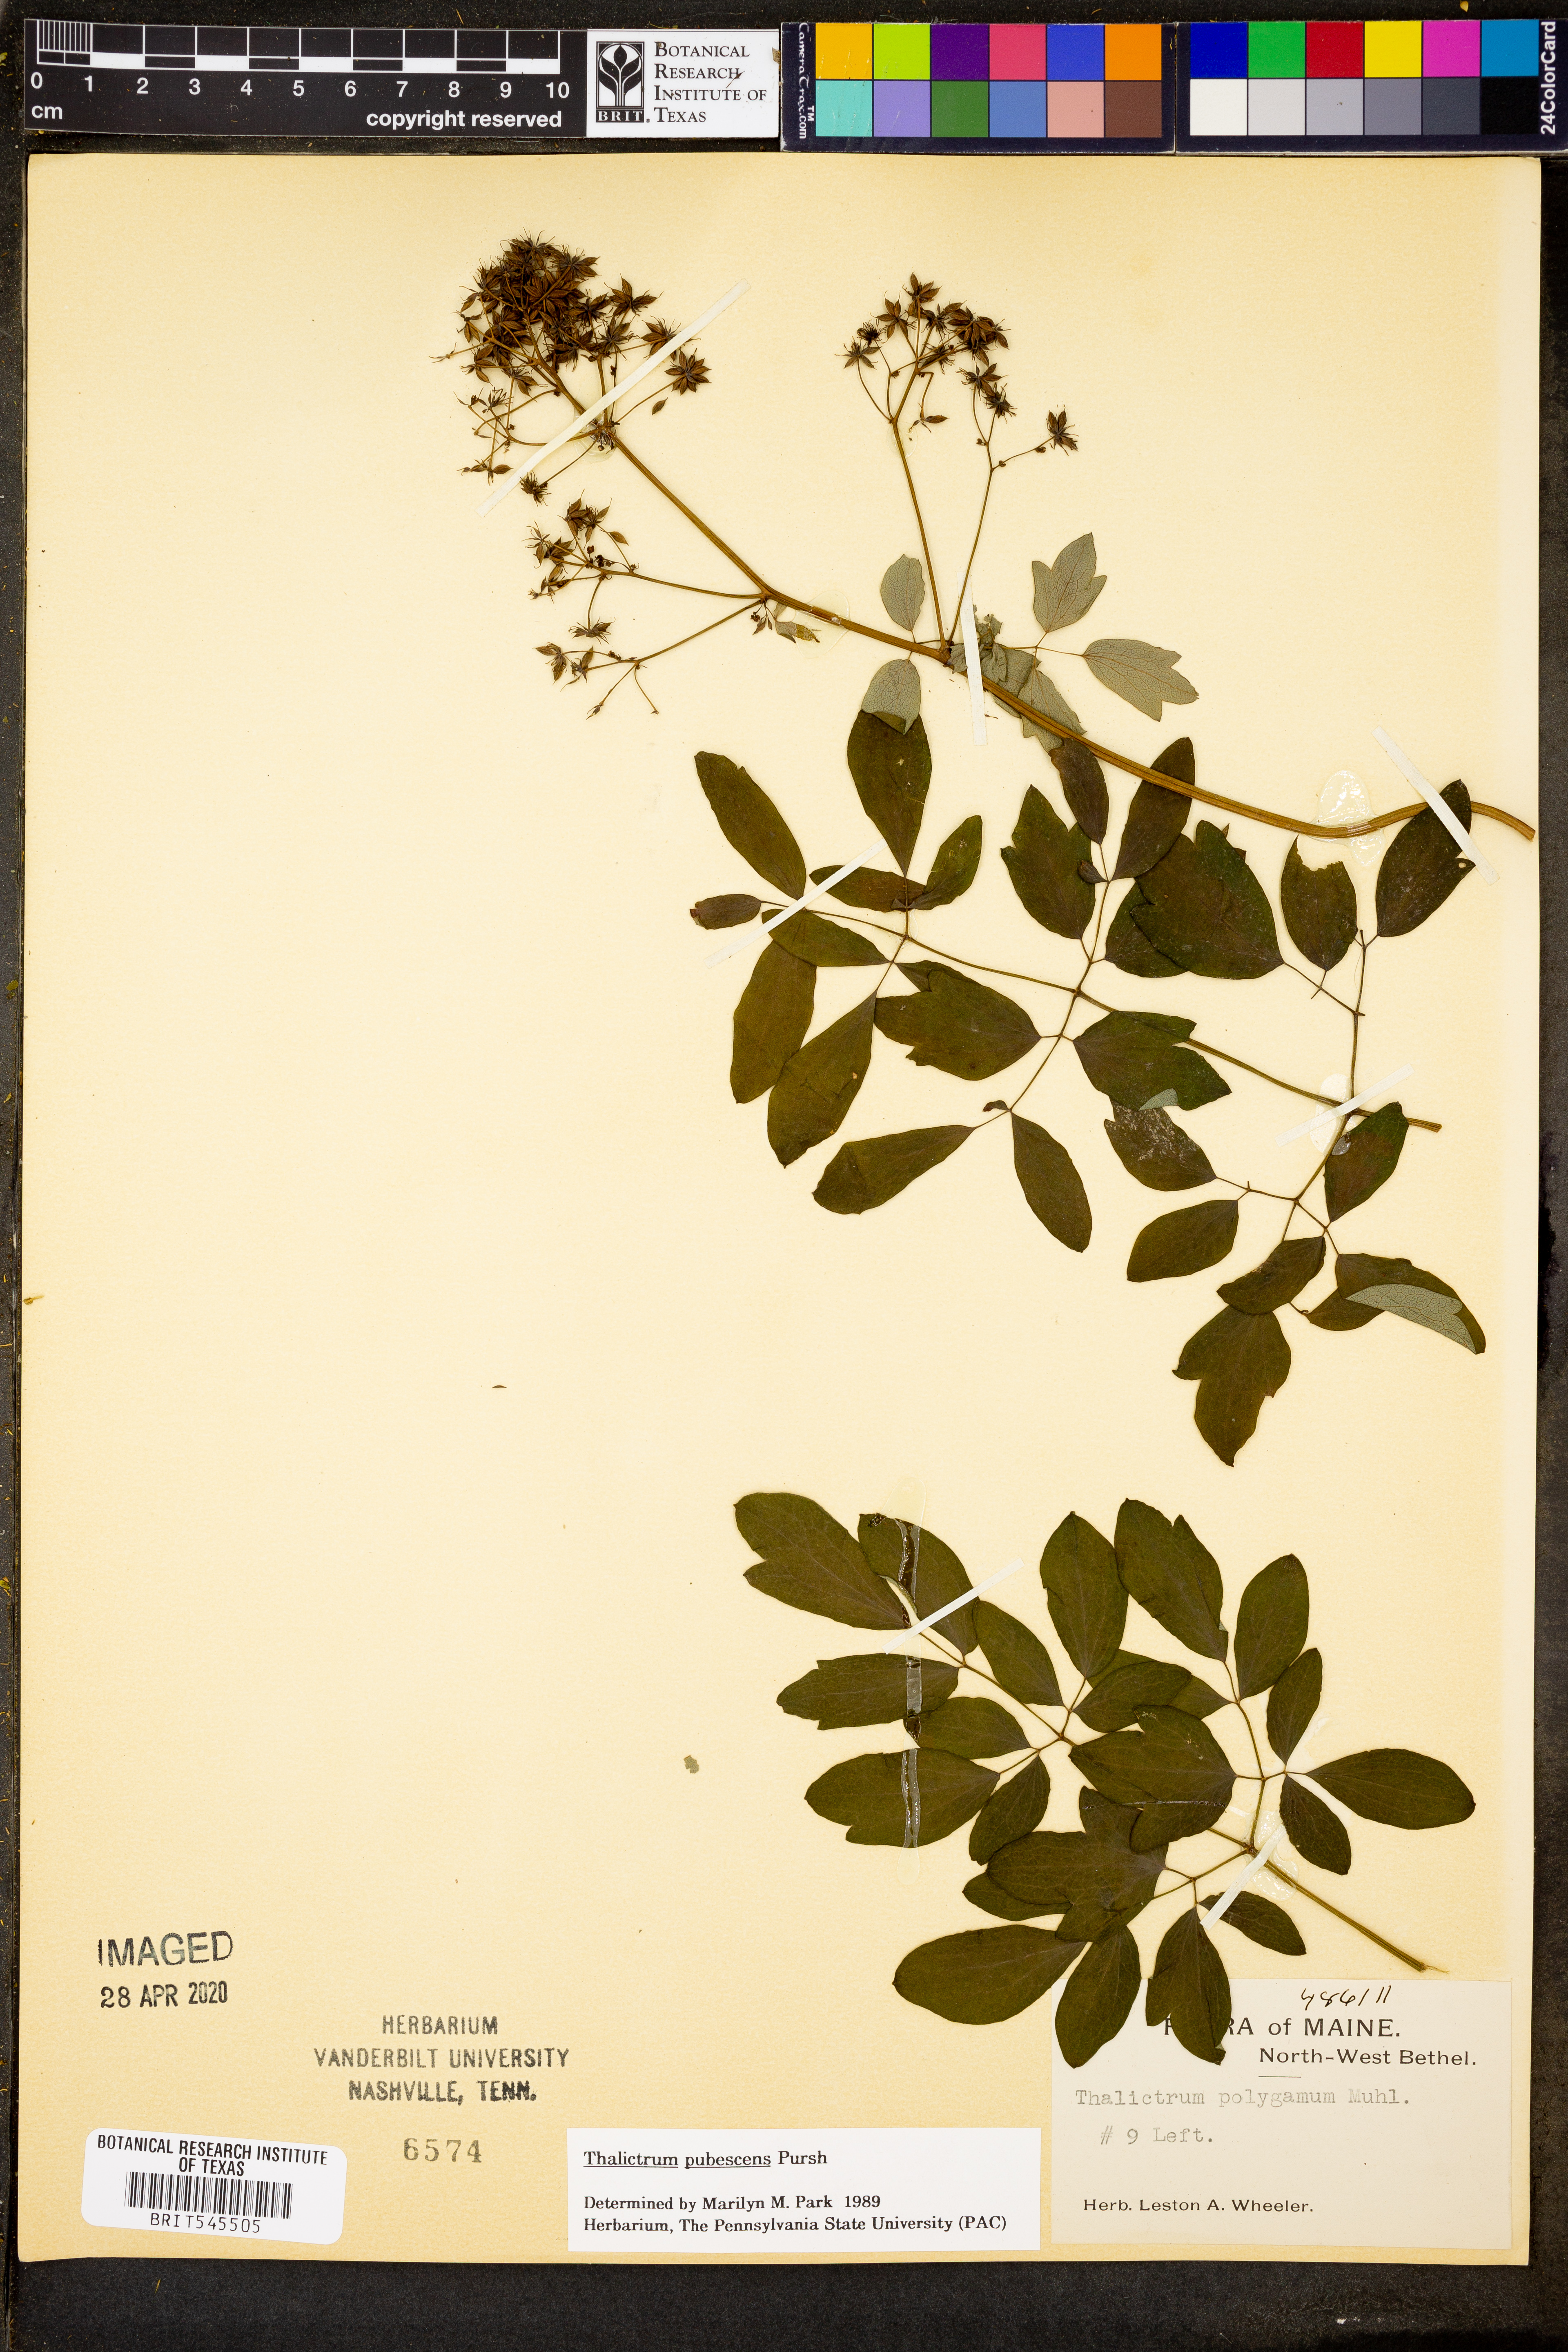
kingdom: Plantae
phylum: Tracheophyta
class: Magnoliopsida
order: Ranunculales
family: Ranunculaceae
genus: Thalictrum
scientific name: Thalictrum pubescens
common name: King-of-the-meadow
